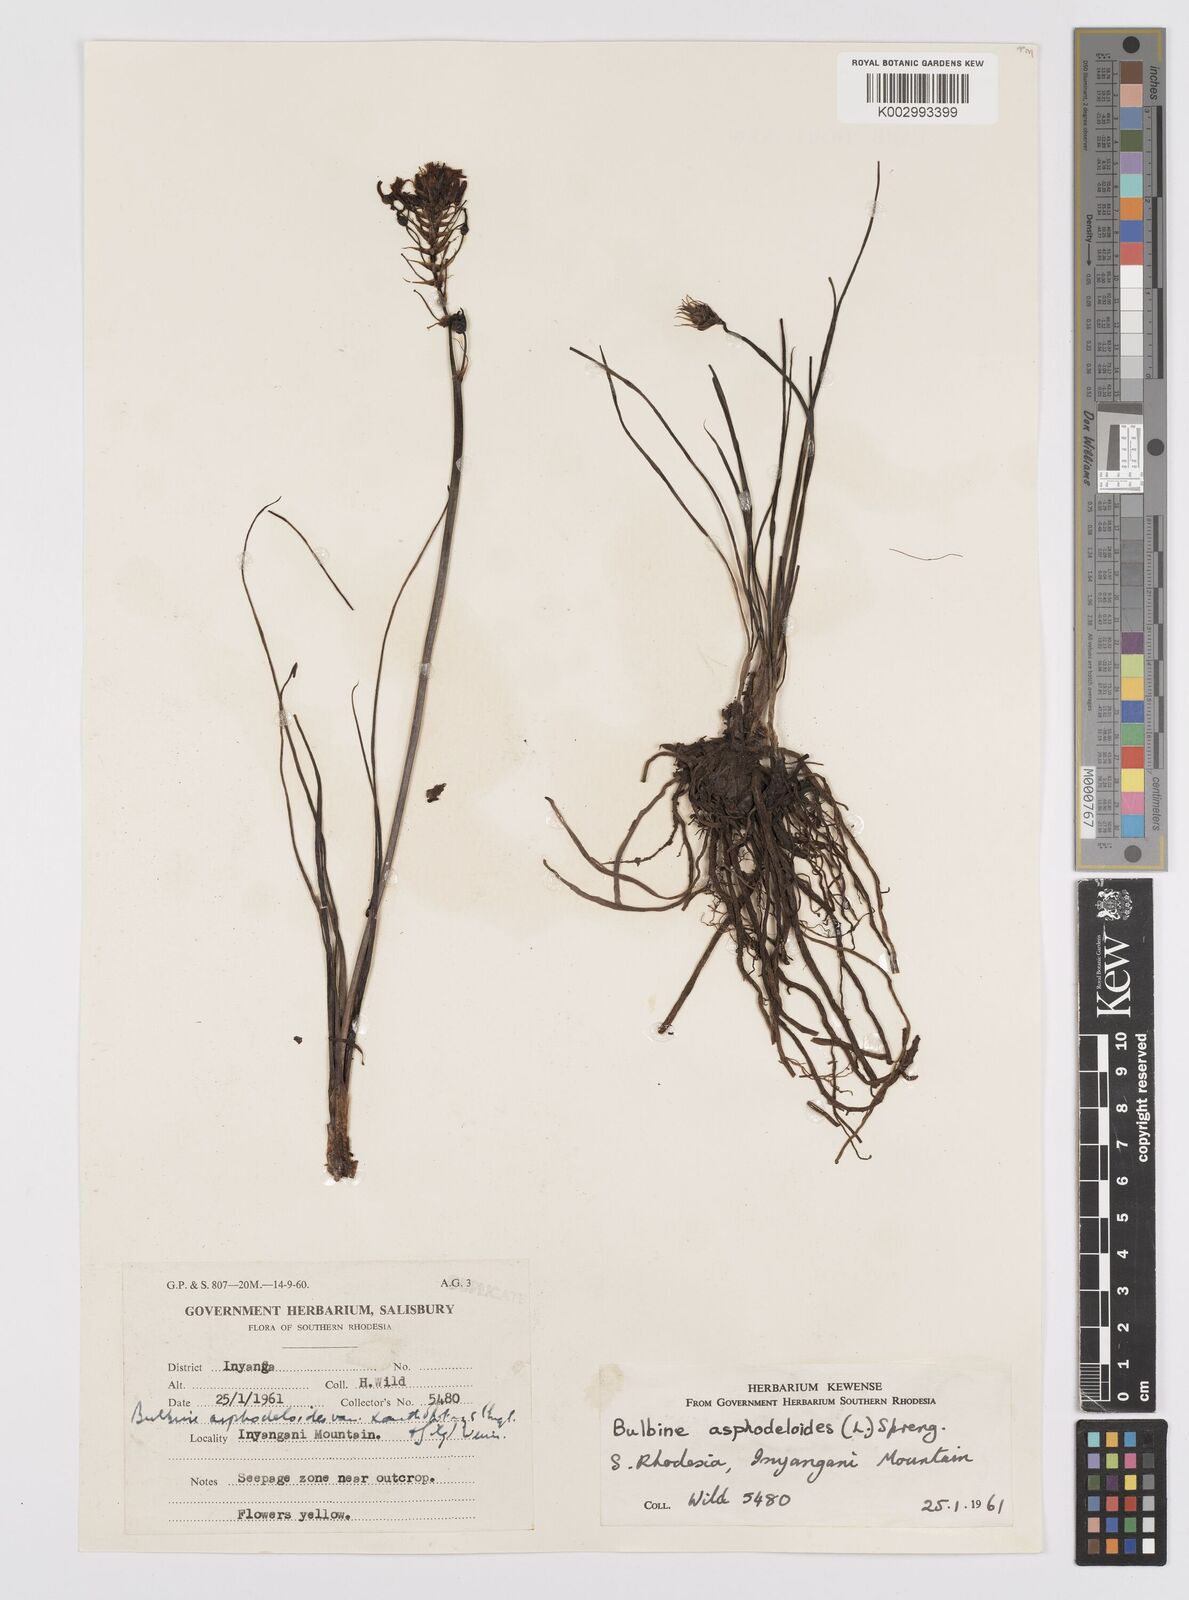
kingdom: Plantae
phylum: Tracheophyta
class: Liliopsida
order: Asparagales
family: Asphodelaceae
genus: Bulbine
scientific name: Bulbine abyssinica
